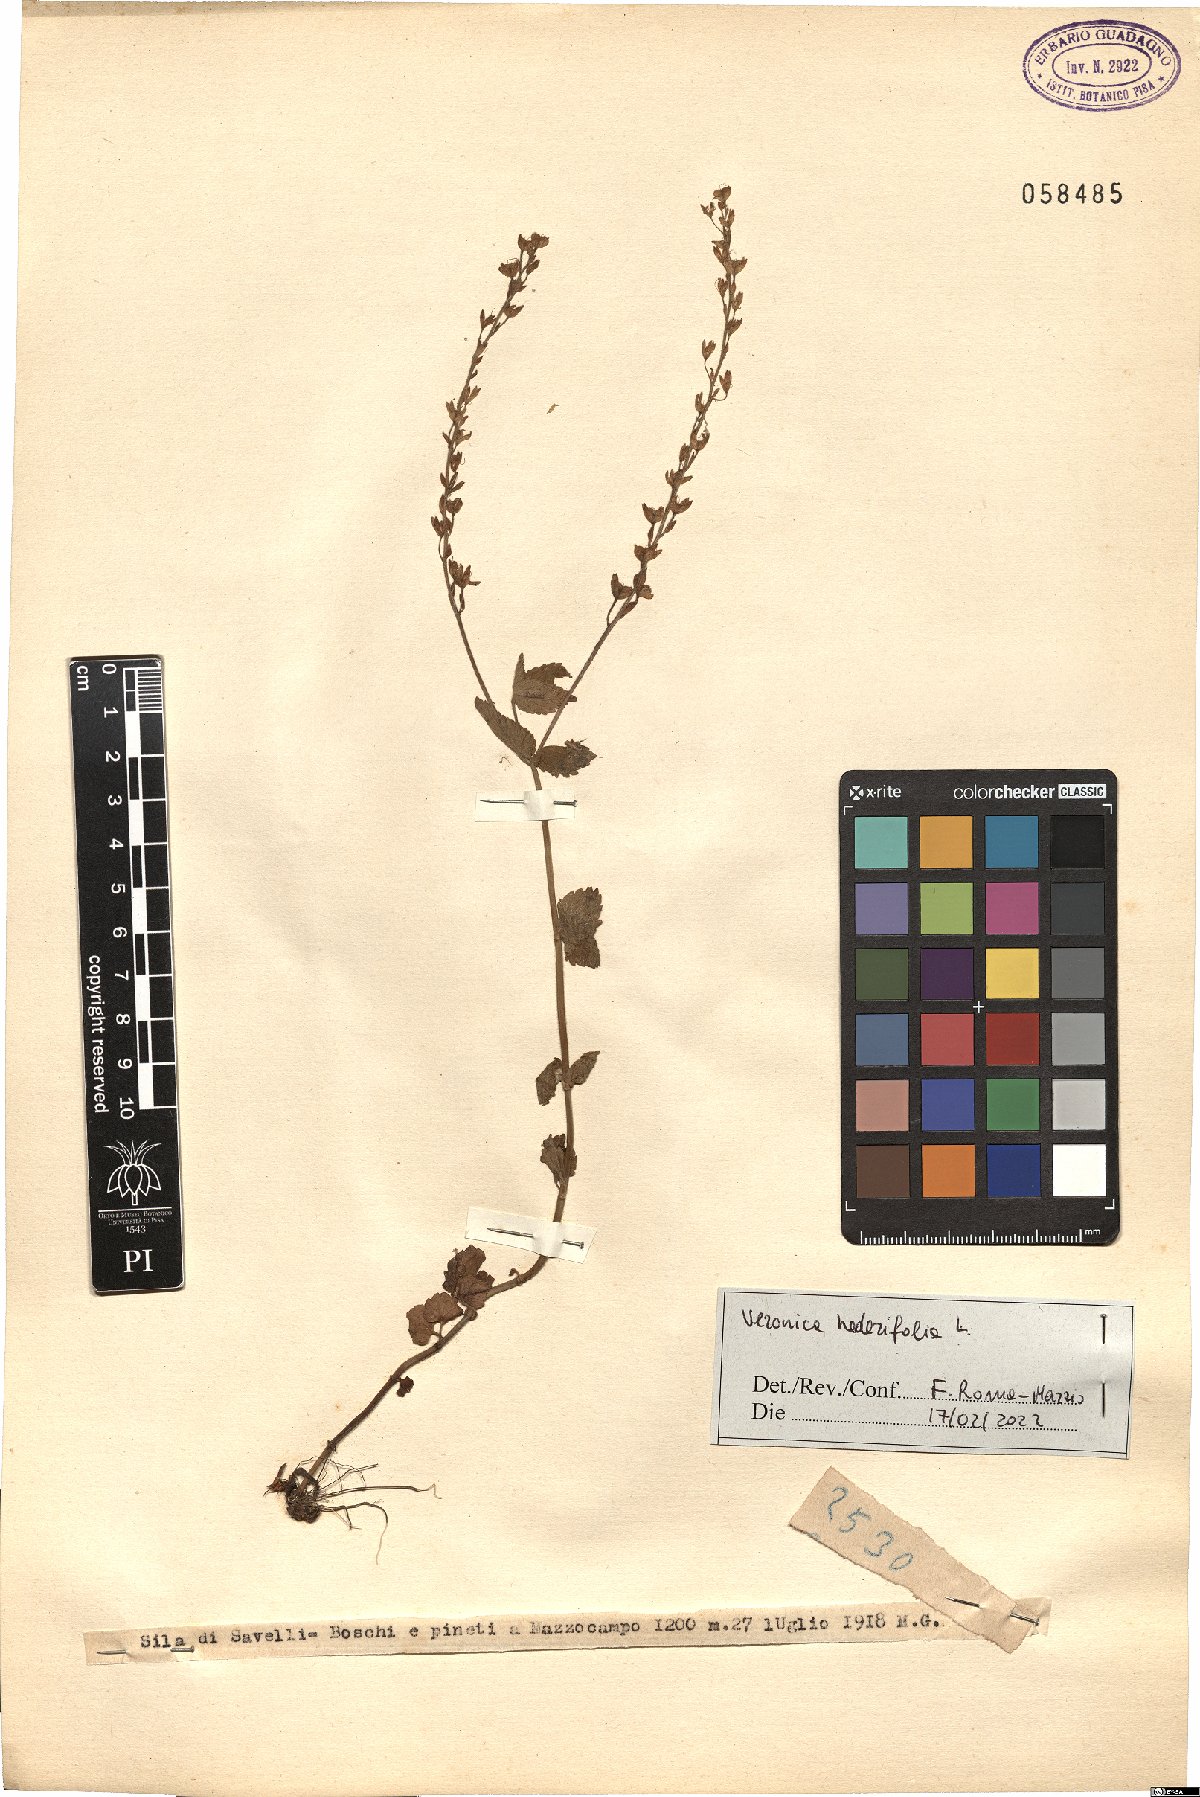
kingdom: Plantae
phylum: Tracheophyta
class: Magnoliopsida
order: Lamiales
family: Plantaginaceae
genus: Veronica
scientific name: Veronica hederifolia
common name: Ivy-leaved speedwell
